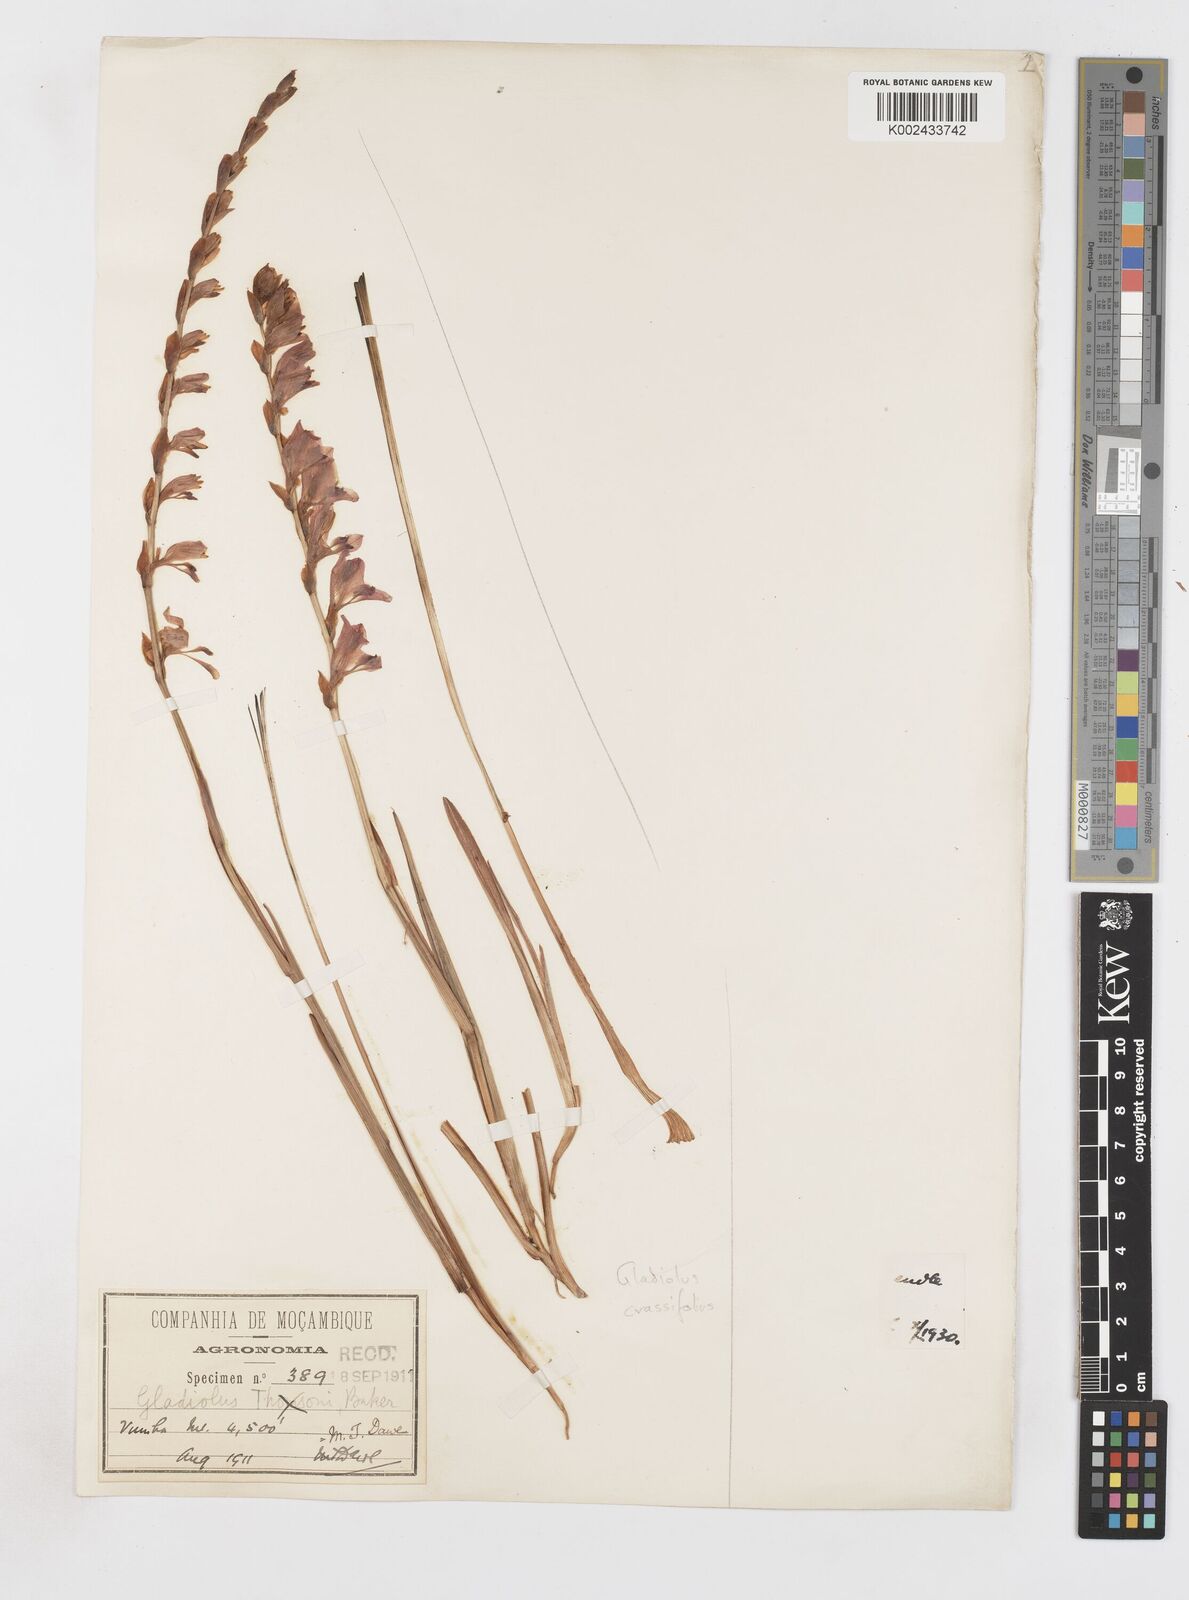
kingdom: Plantae
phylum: Tracheophyta
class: Liliopsida
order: Asparagales
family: Iridaceae
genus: Gladiolus
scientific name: Gladiolus crassifolius
